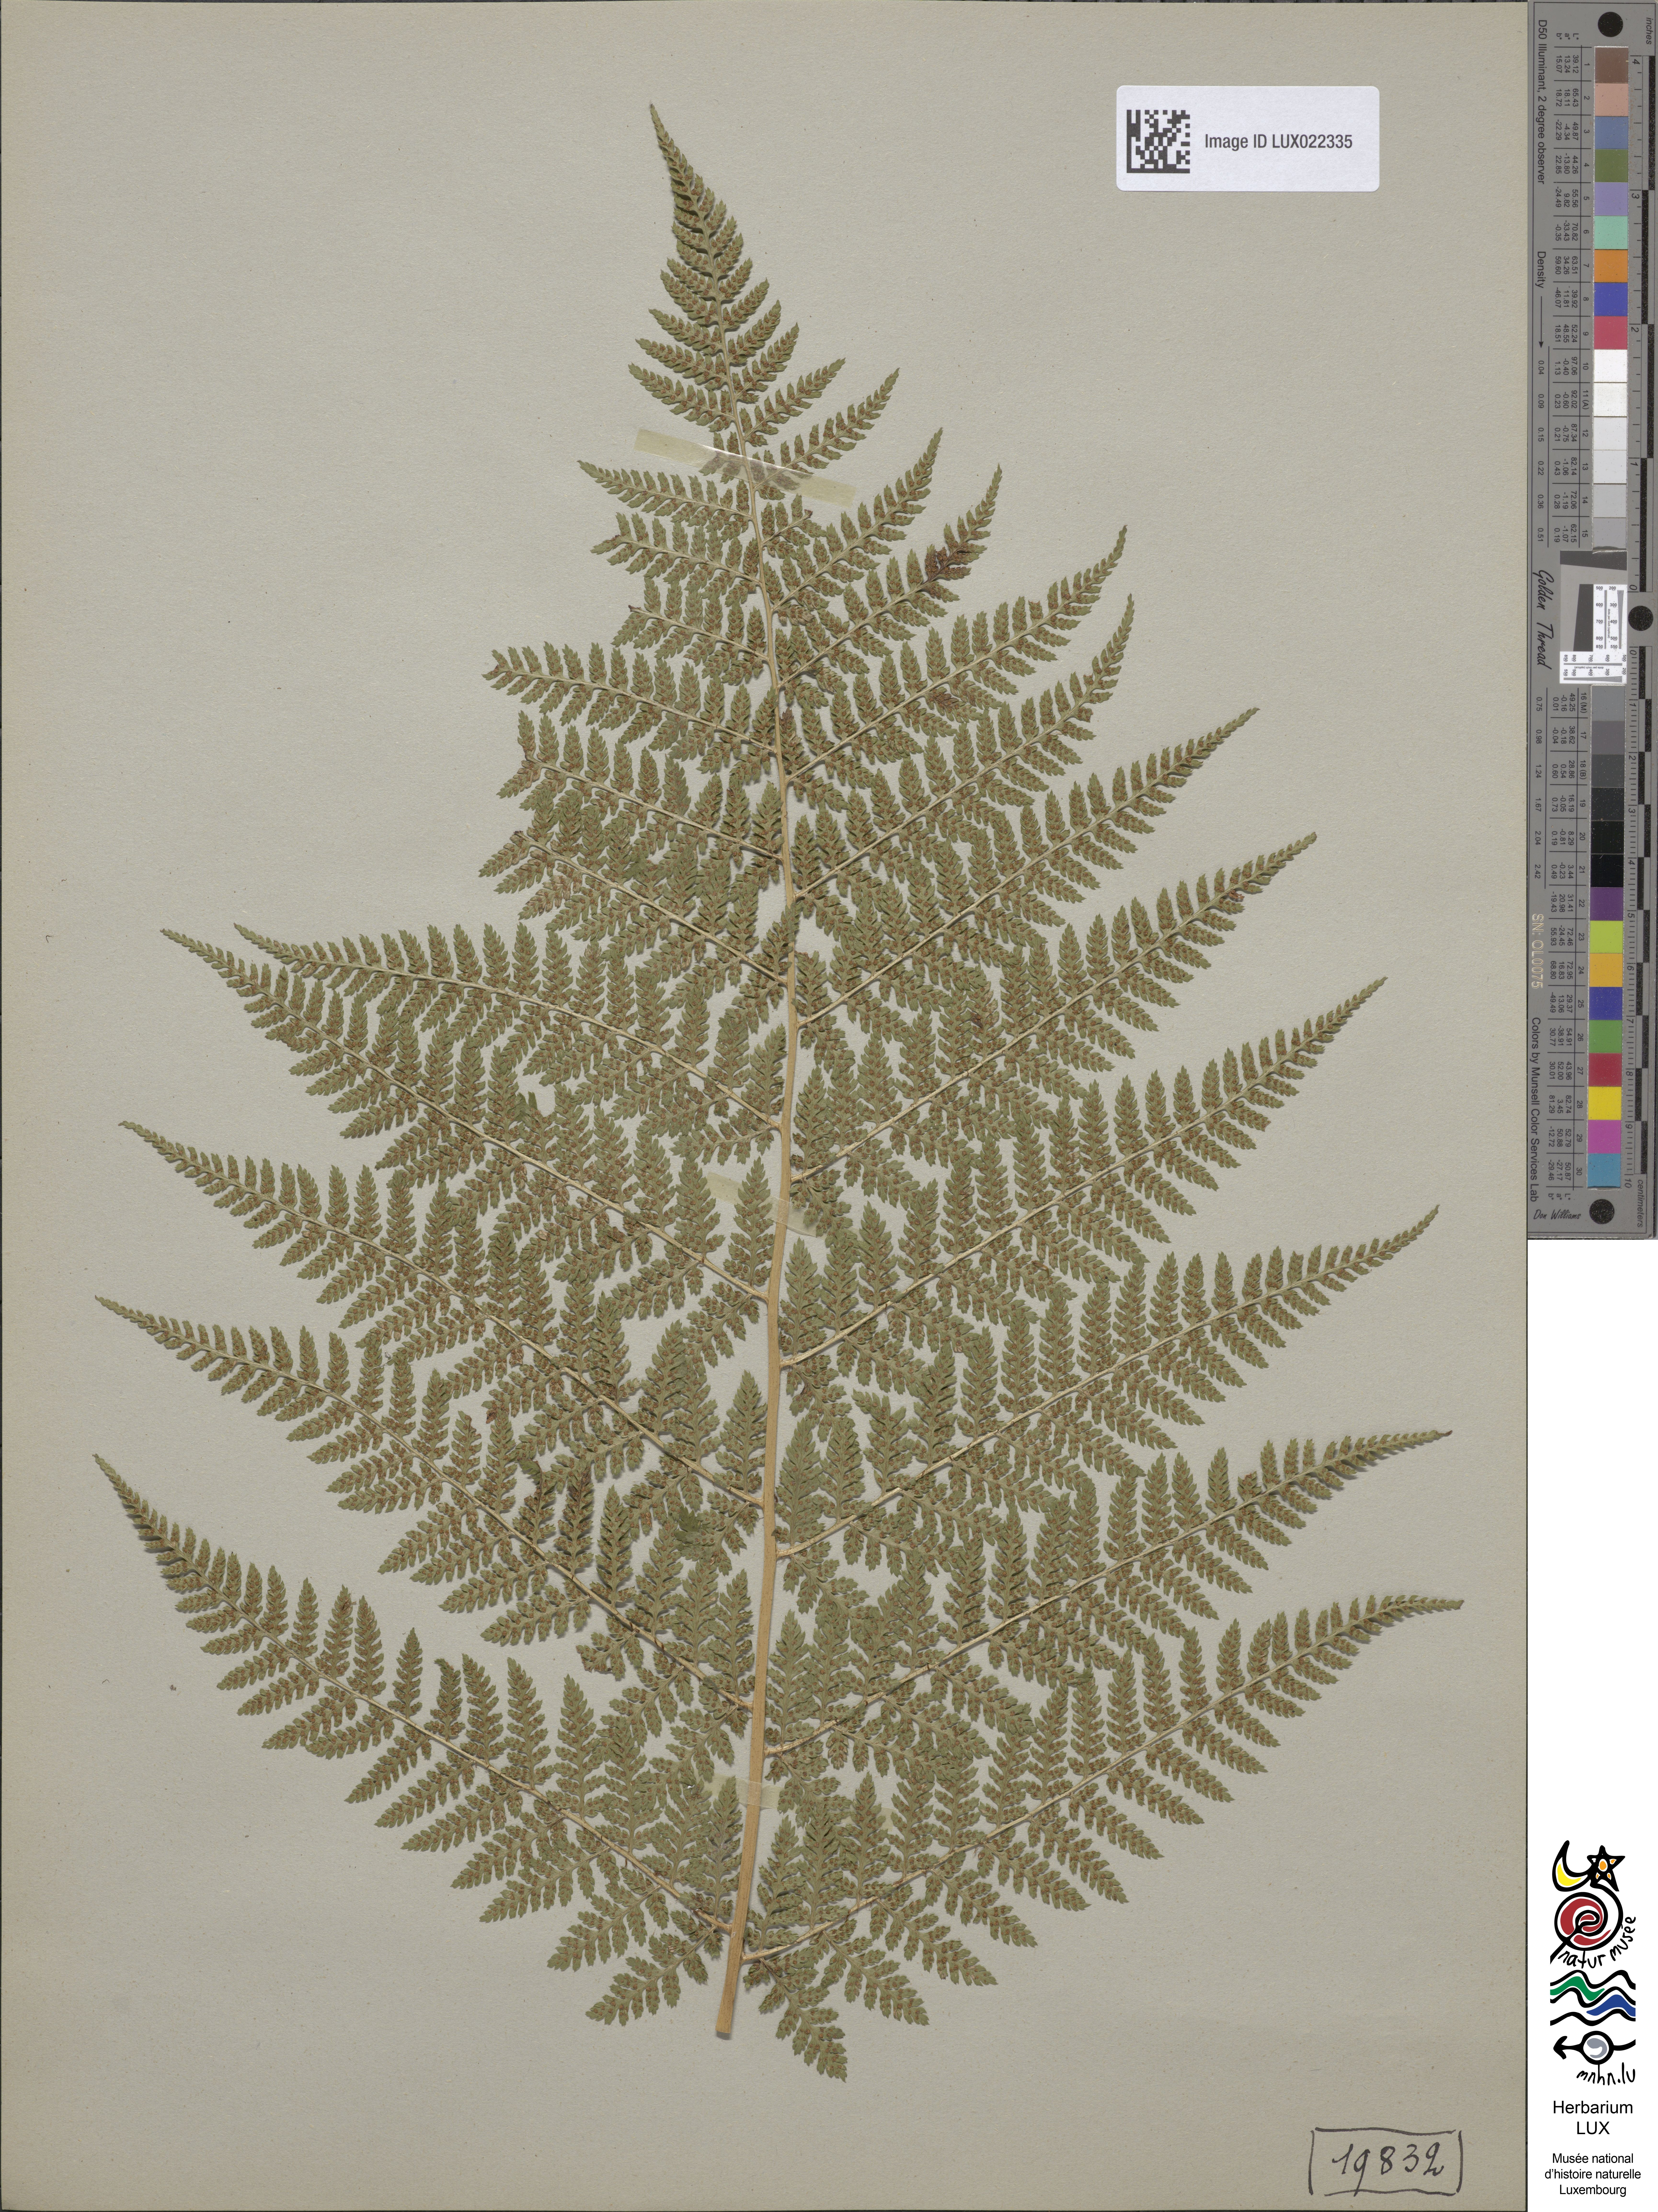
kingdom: Plantae
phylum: Tracheophyta
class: Polypodiopsida
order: Polypodiales
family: Dryopteridaceae
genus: Dryopteris
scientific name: Dryopteris dilatata
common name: Broad buckler-fern
